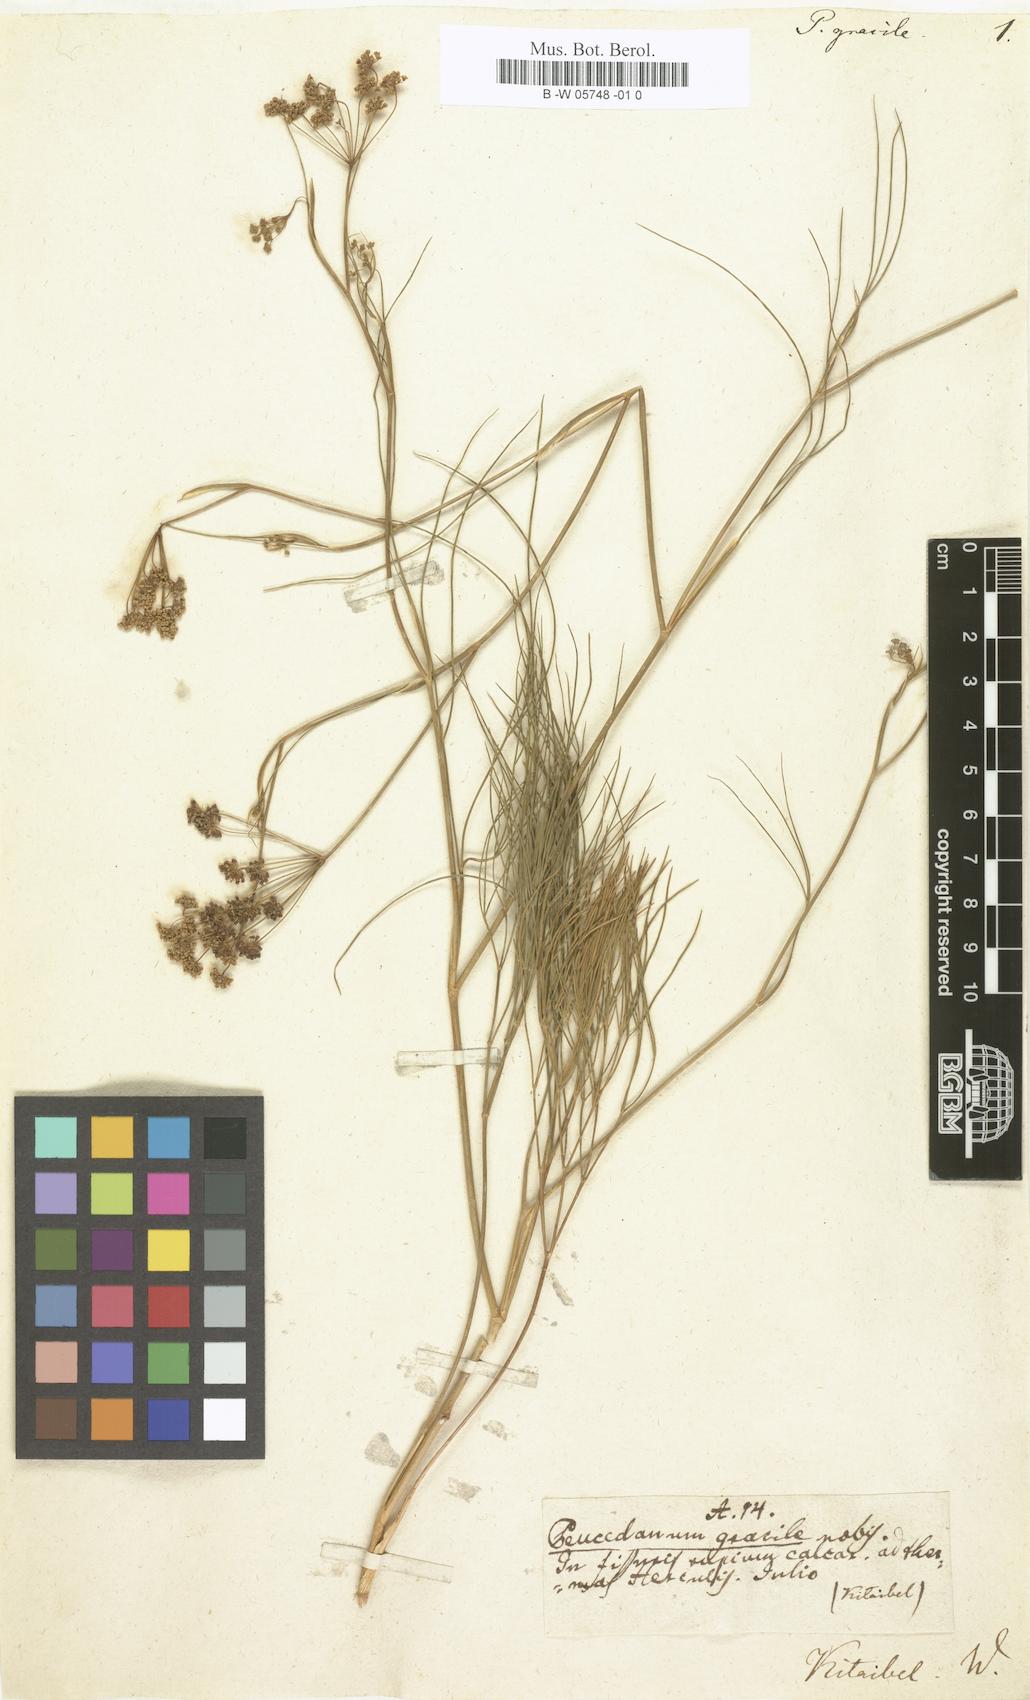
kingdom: Plantae
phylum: Tracheophyta
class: Magnoliopsida
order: Apiales
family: Apiaceae
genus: Ferula
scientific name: Ferula caspica
